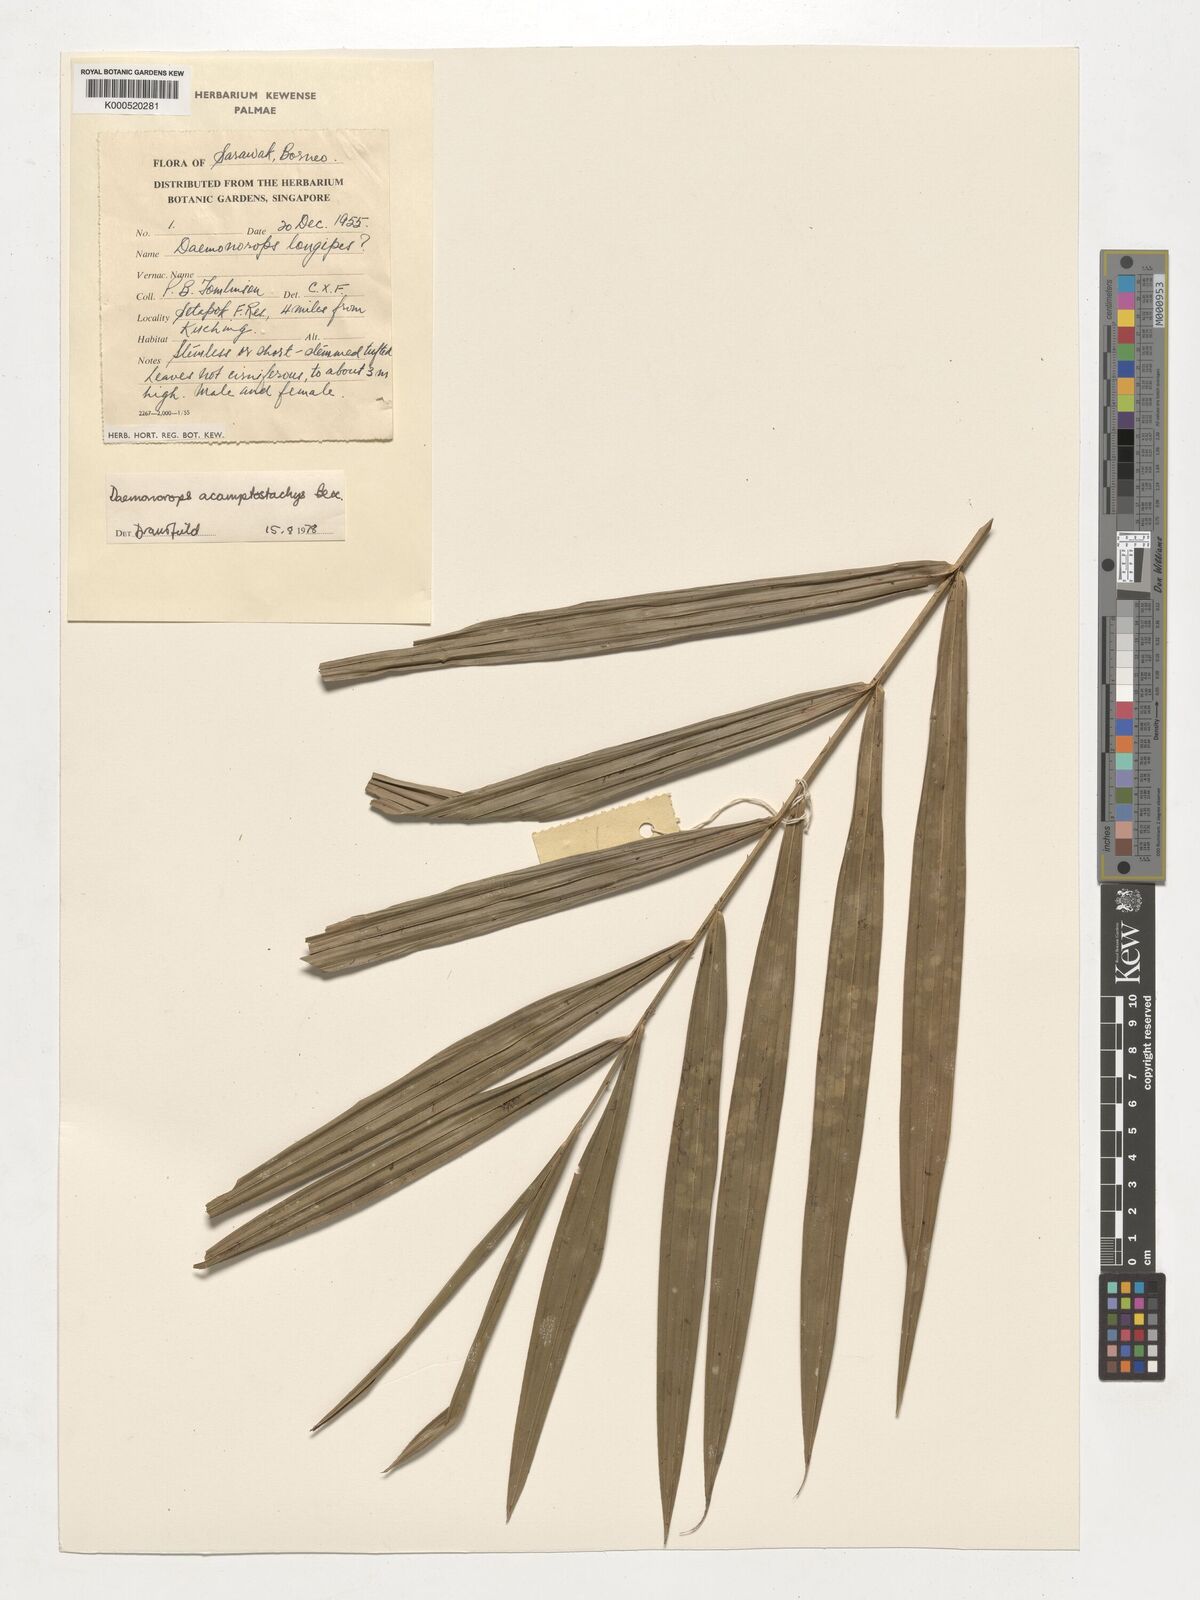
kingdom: Plantae
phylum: Tracheophyta
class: Liliopsida
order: Arecales
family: Arecaceae
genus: Calamus
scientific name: Calamus acamptostachys
